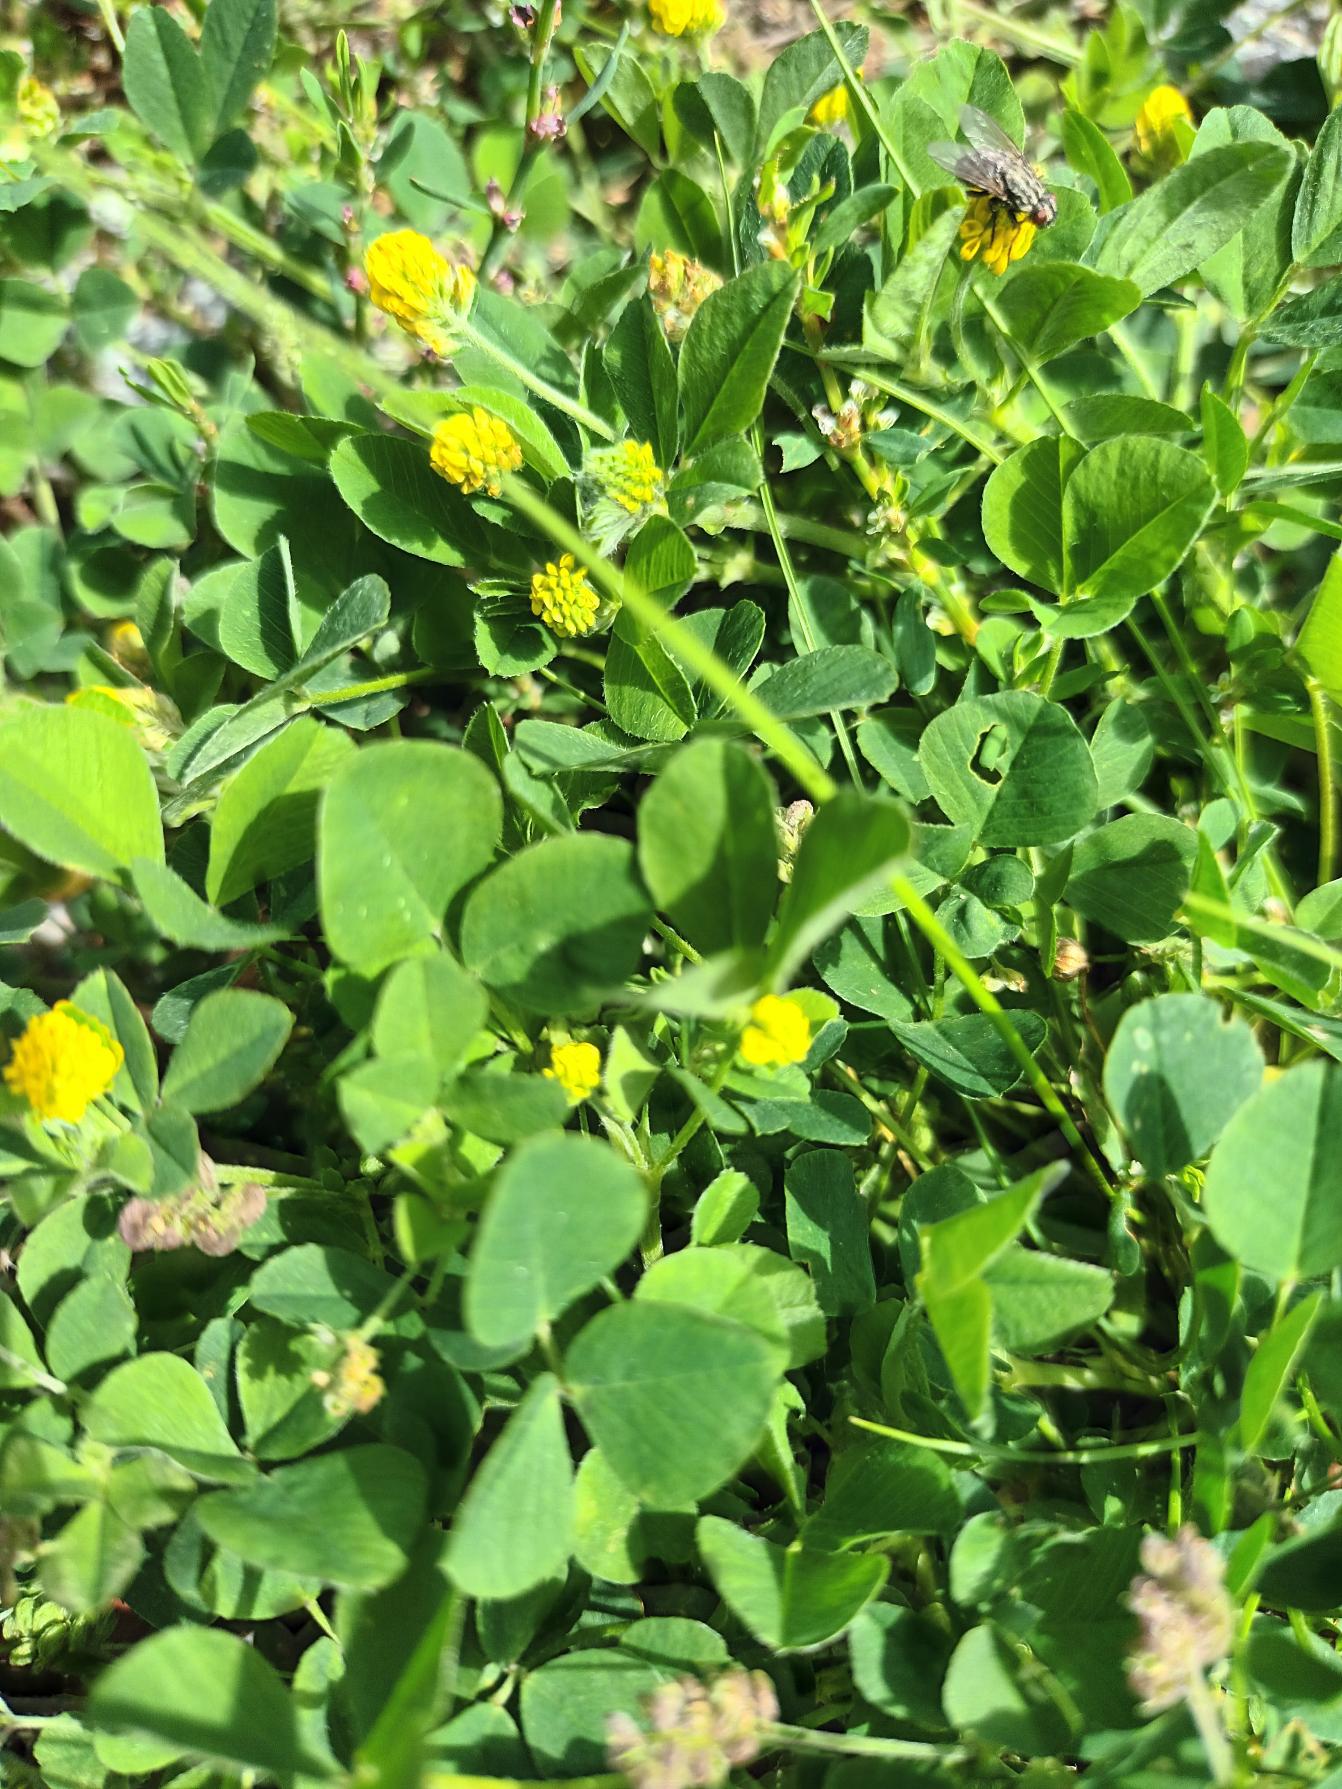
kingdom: Plantae
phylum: Tracheophyta
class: Magnoliopsida
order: Fabales
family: Fabaceae
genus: Medicago
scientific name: Medicago lupulina
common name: Humle-sneglebælg
